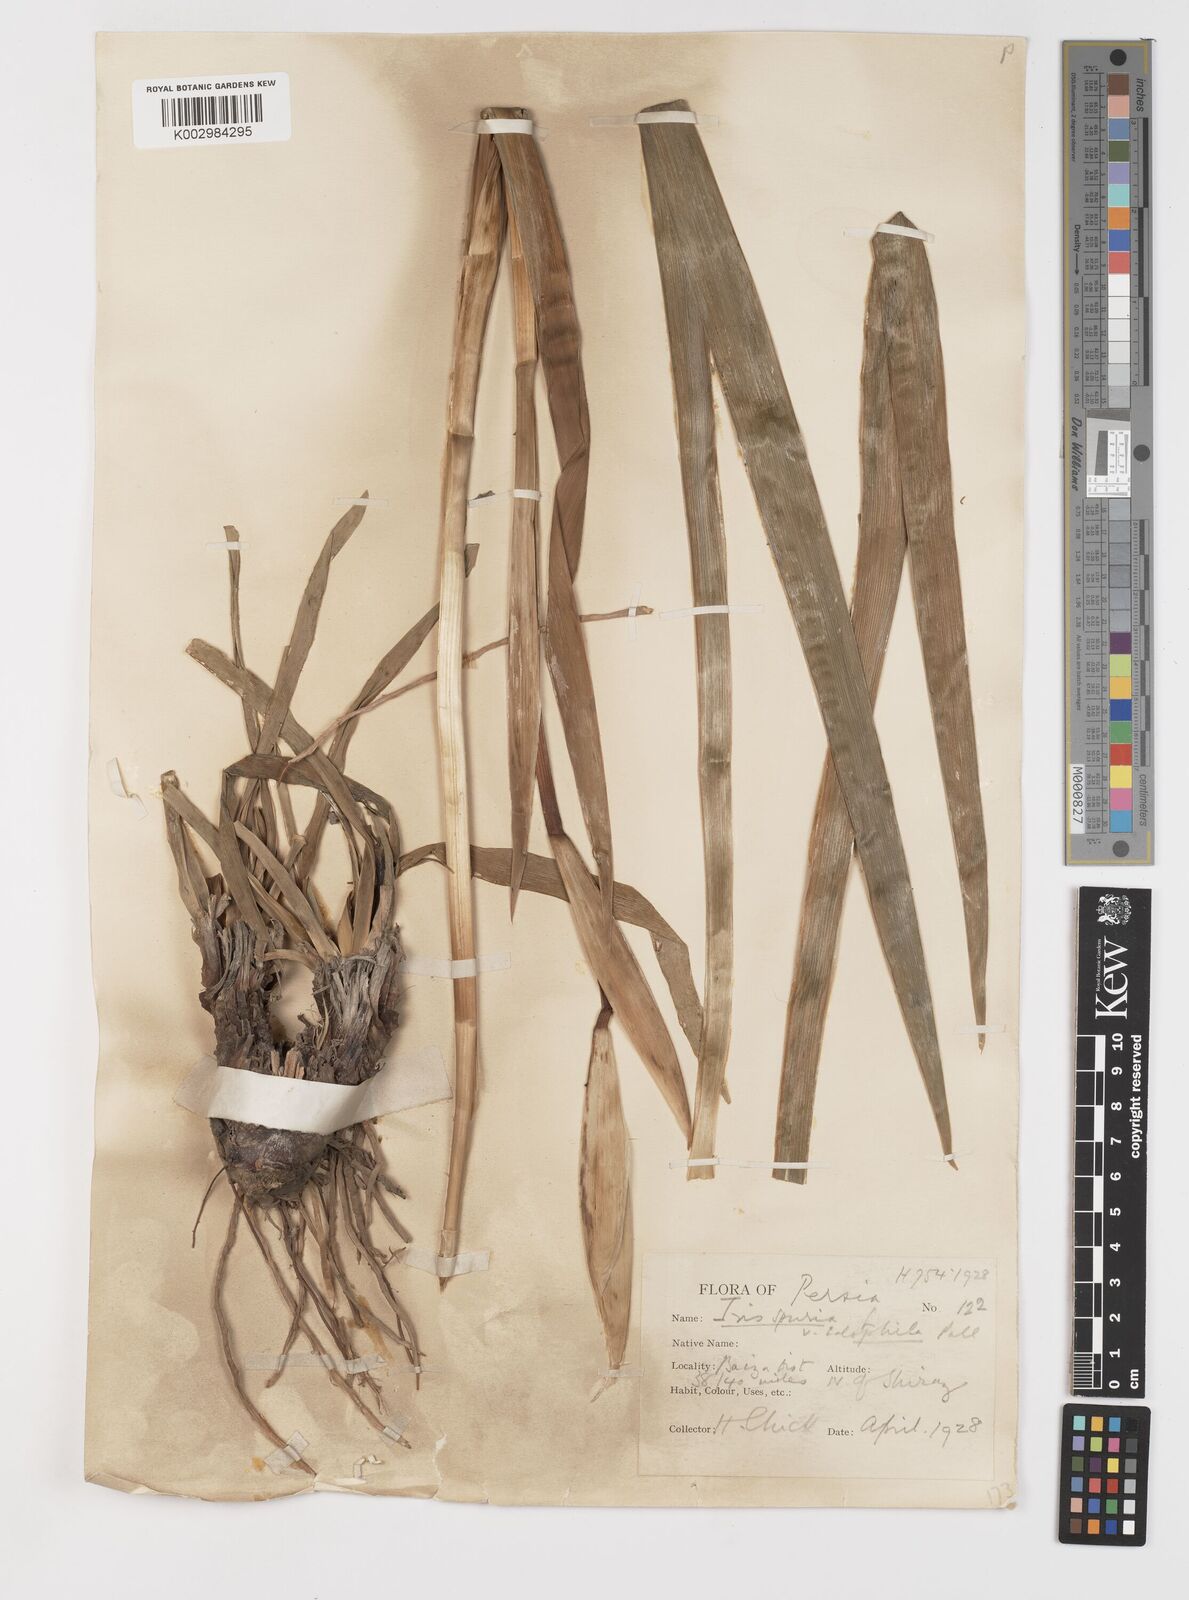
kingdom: Plantae
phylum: Tracheophyta
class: Liliopsida
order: Asparagales
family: Iridaceae
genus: Iris
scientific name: Iris spuria
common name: Blue iris
